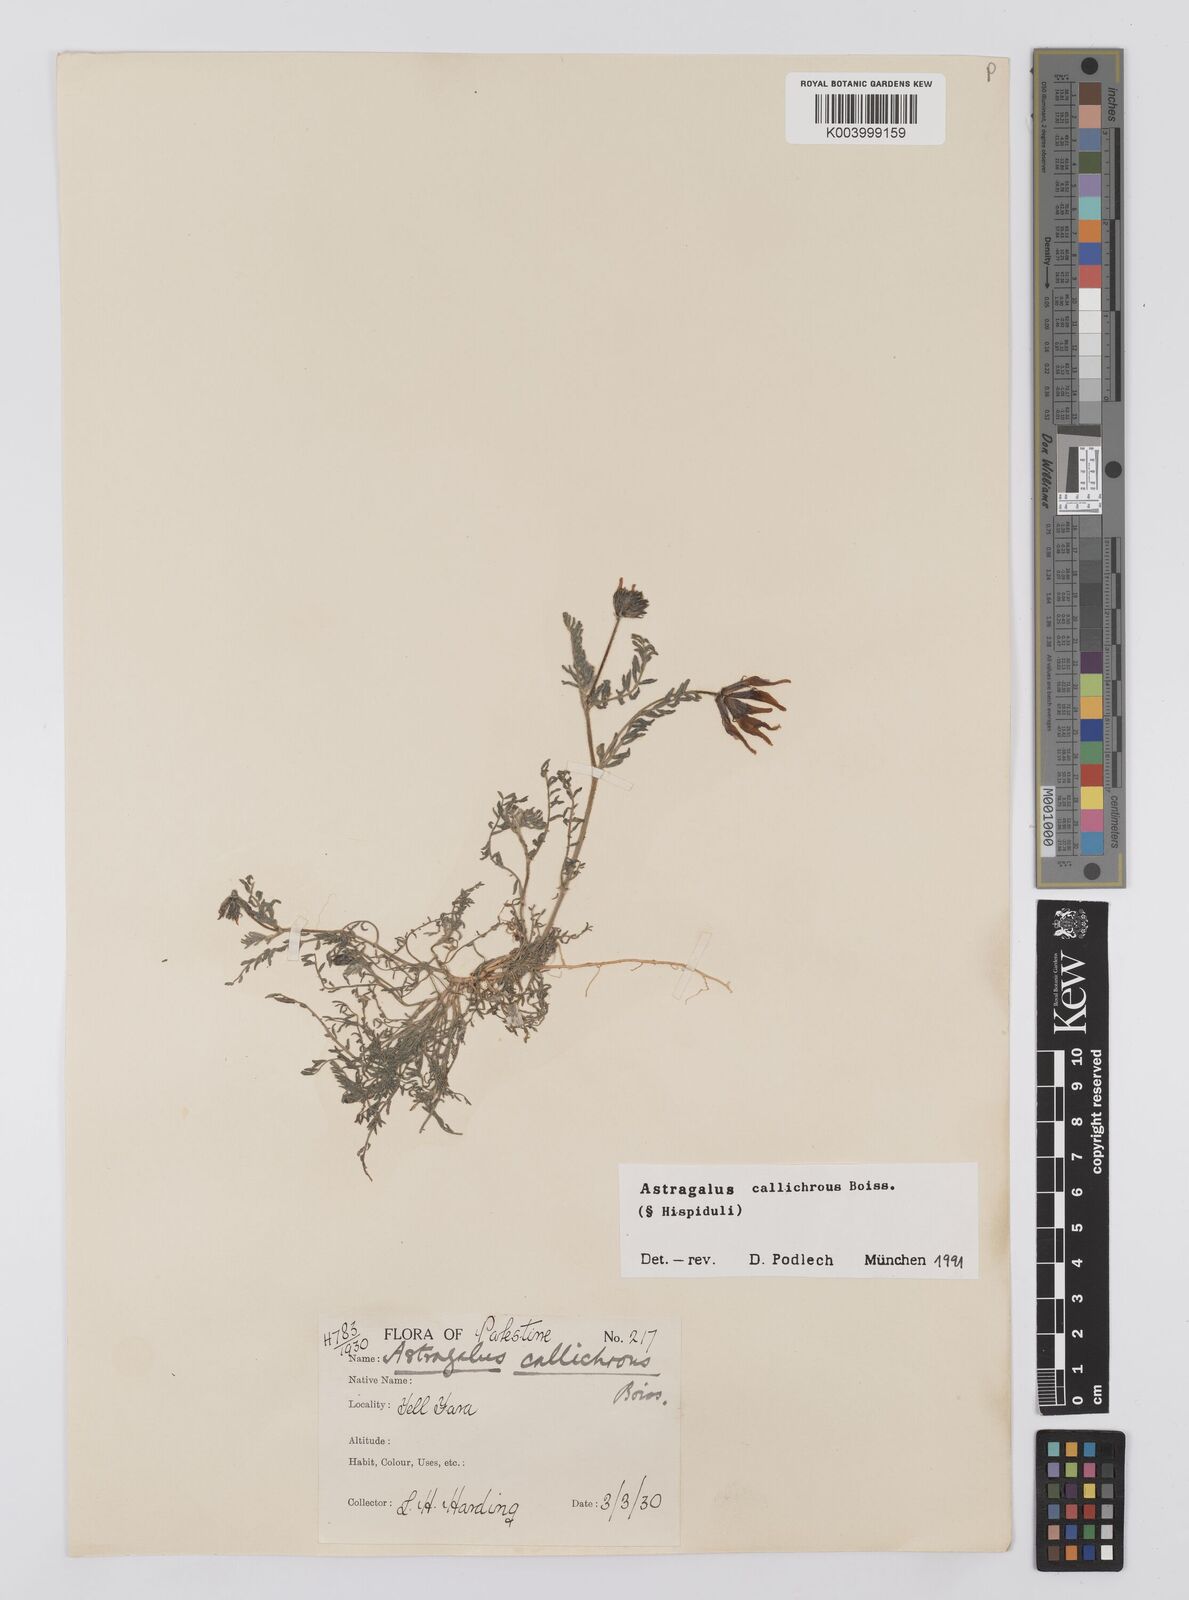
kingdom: Plantae
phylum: Tracheophyta
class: Magnoliopsida
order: Fabales
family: Fabaceae
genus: Astragalus
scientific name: Astragalus callichrous
